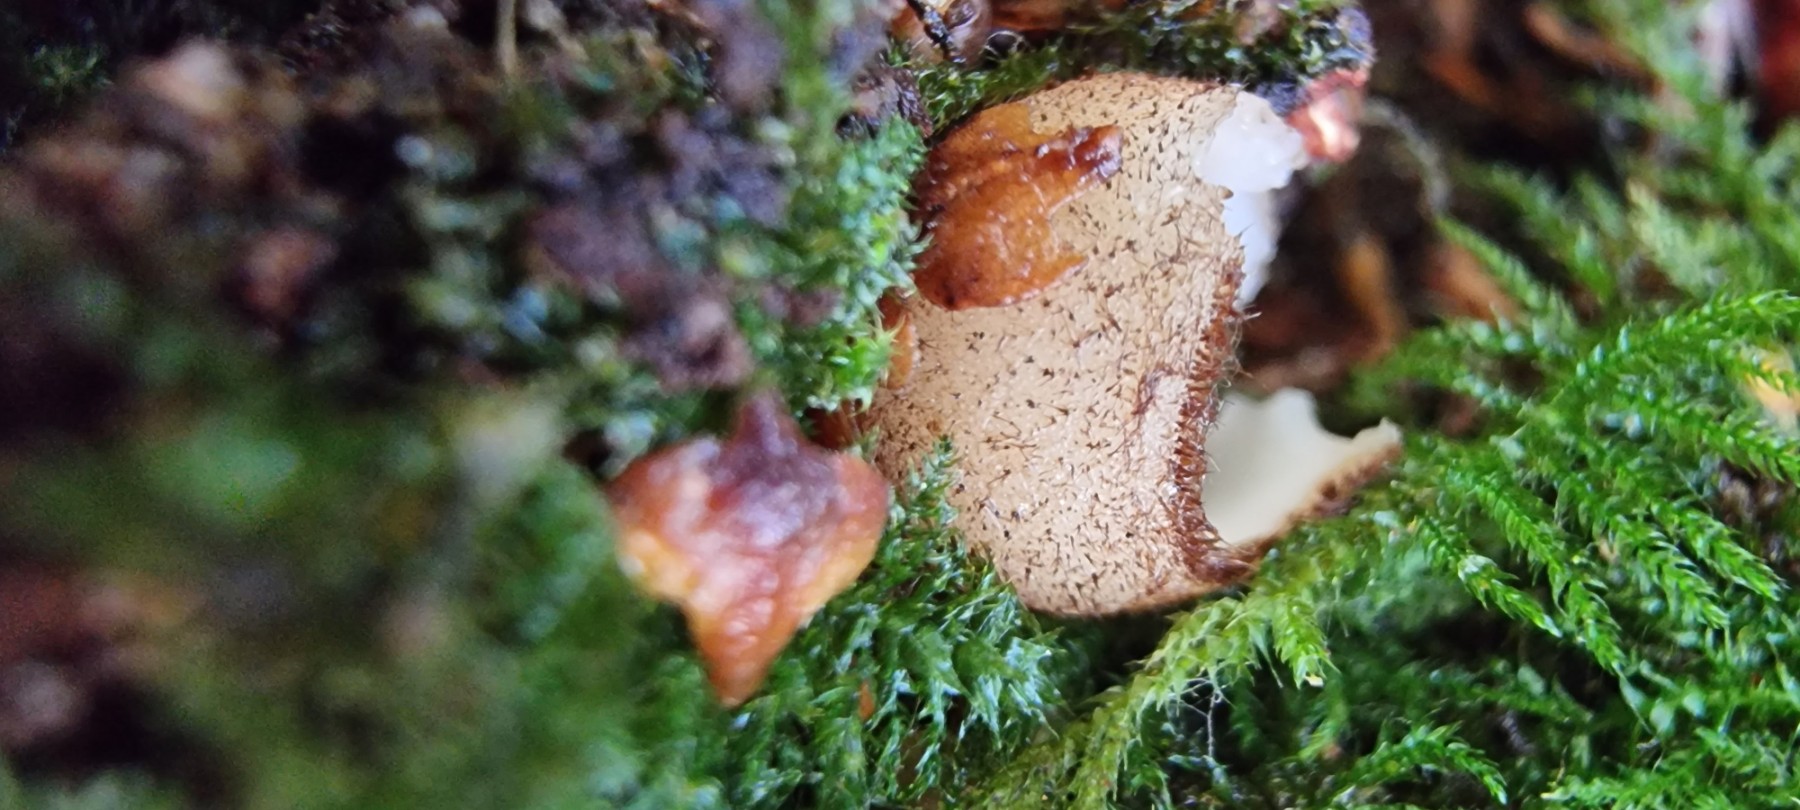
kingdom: Fungi
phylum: Ascomycota
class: Pezizomycetes
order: Pezizales
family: Pyronemataceae
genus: Humaria
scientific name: Humaria hemisphaerica
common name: halvkugleformet børstebæger
